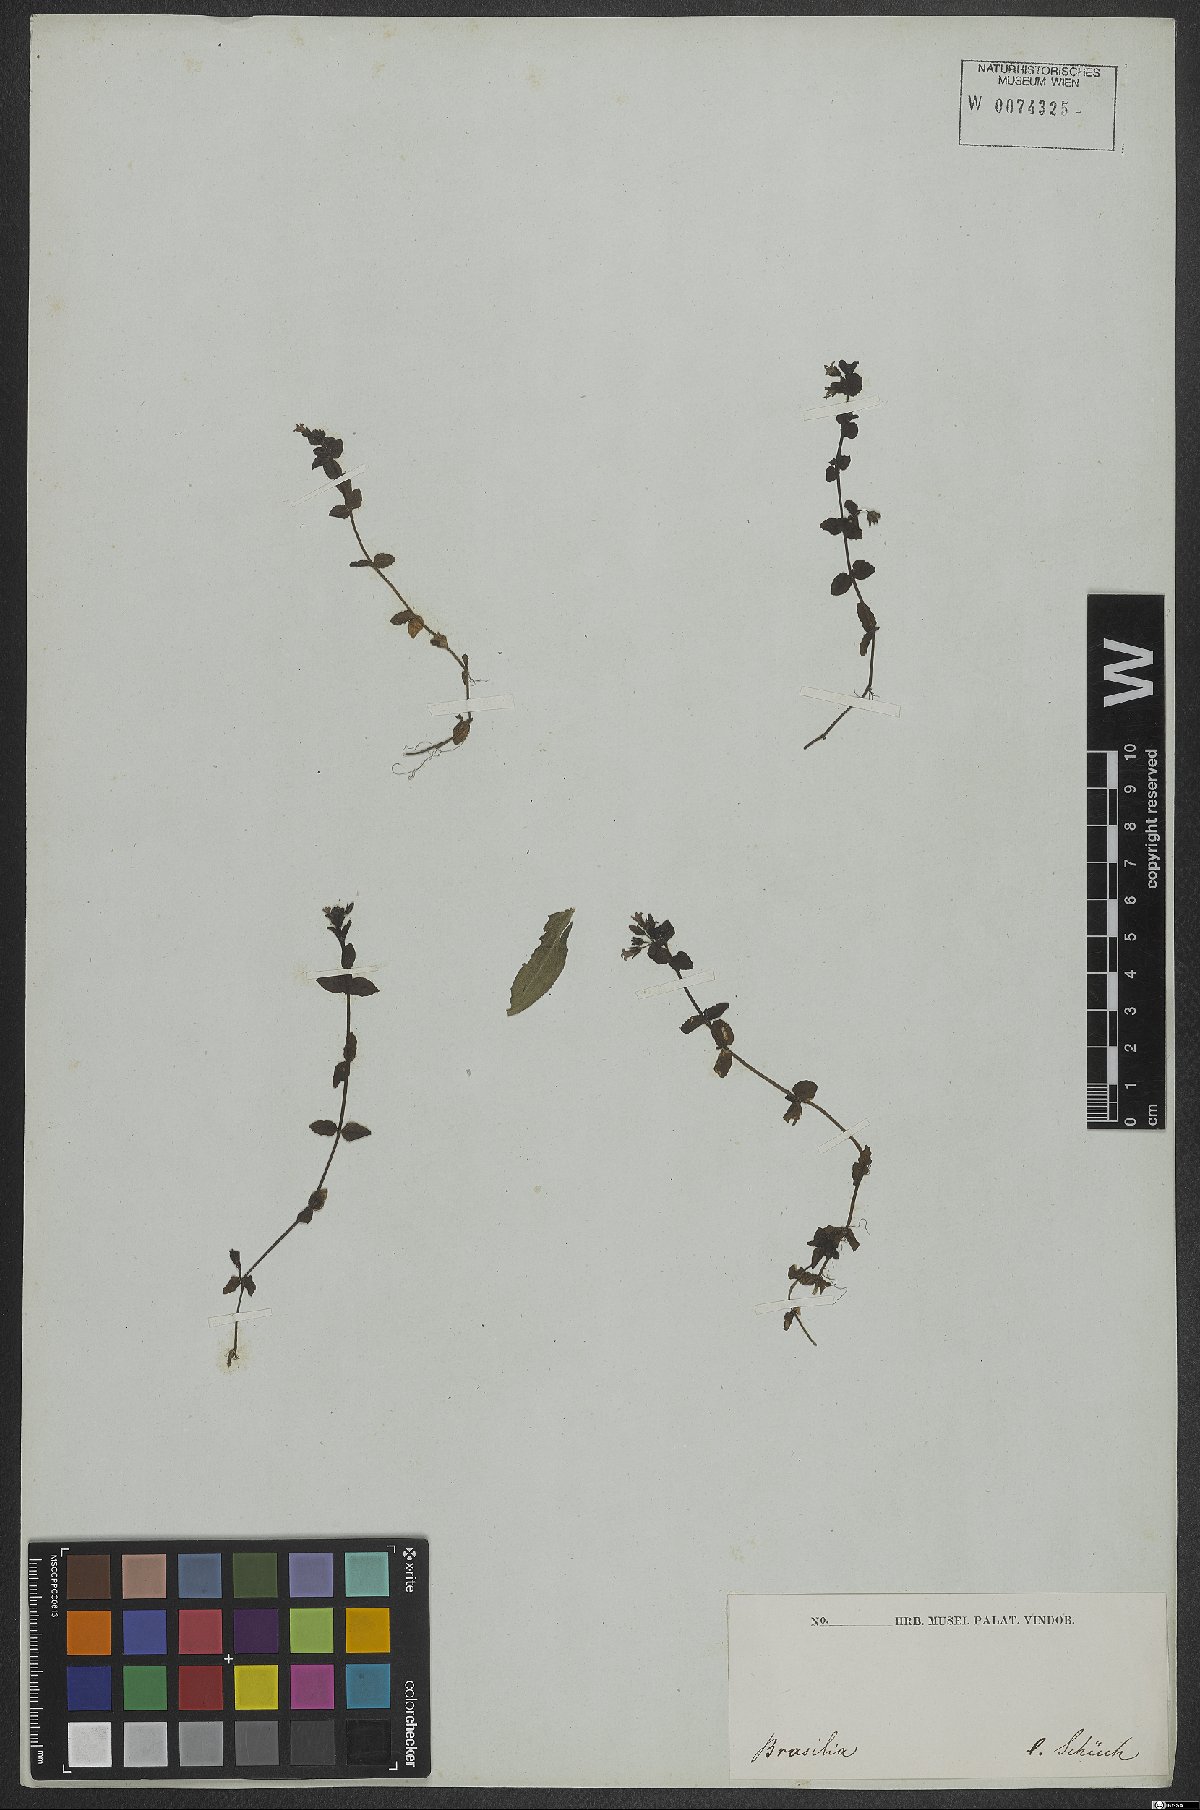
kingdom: Plantae
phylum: Tracheophyta
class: Magnoliopsida
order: Lamiales
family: Plantaginaceae
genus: Conobea
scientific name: Conobea
